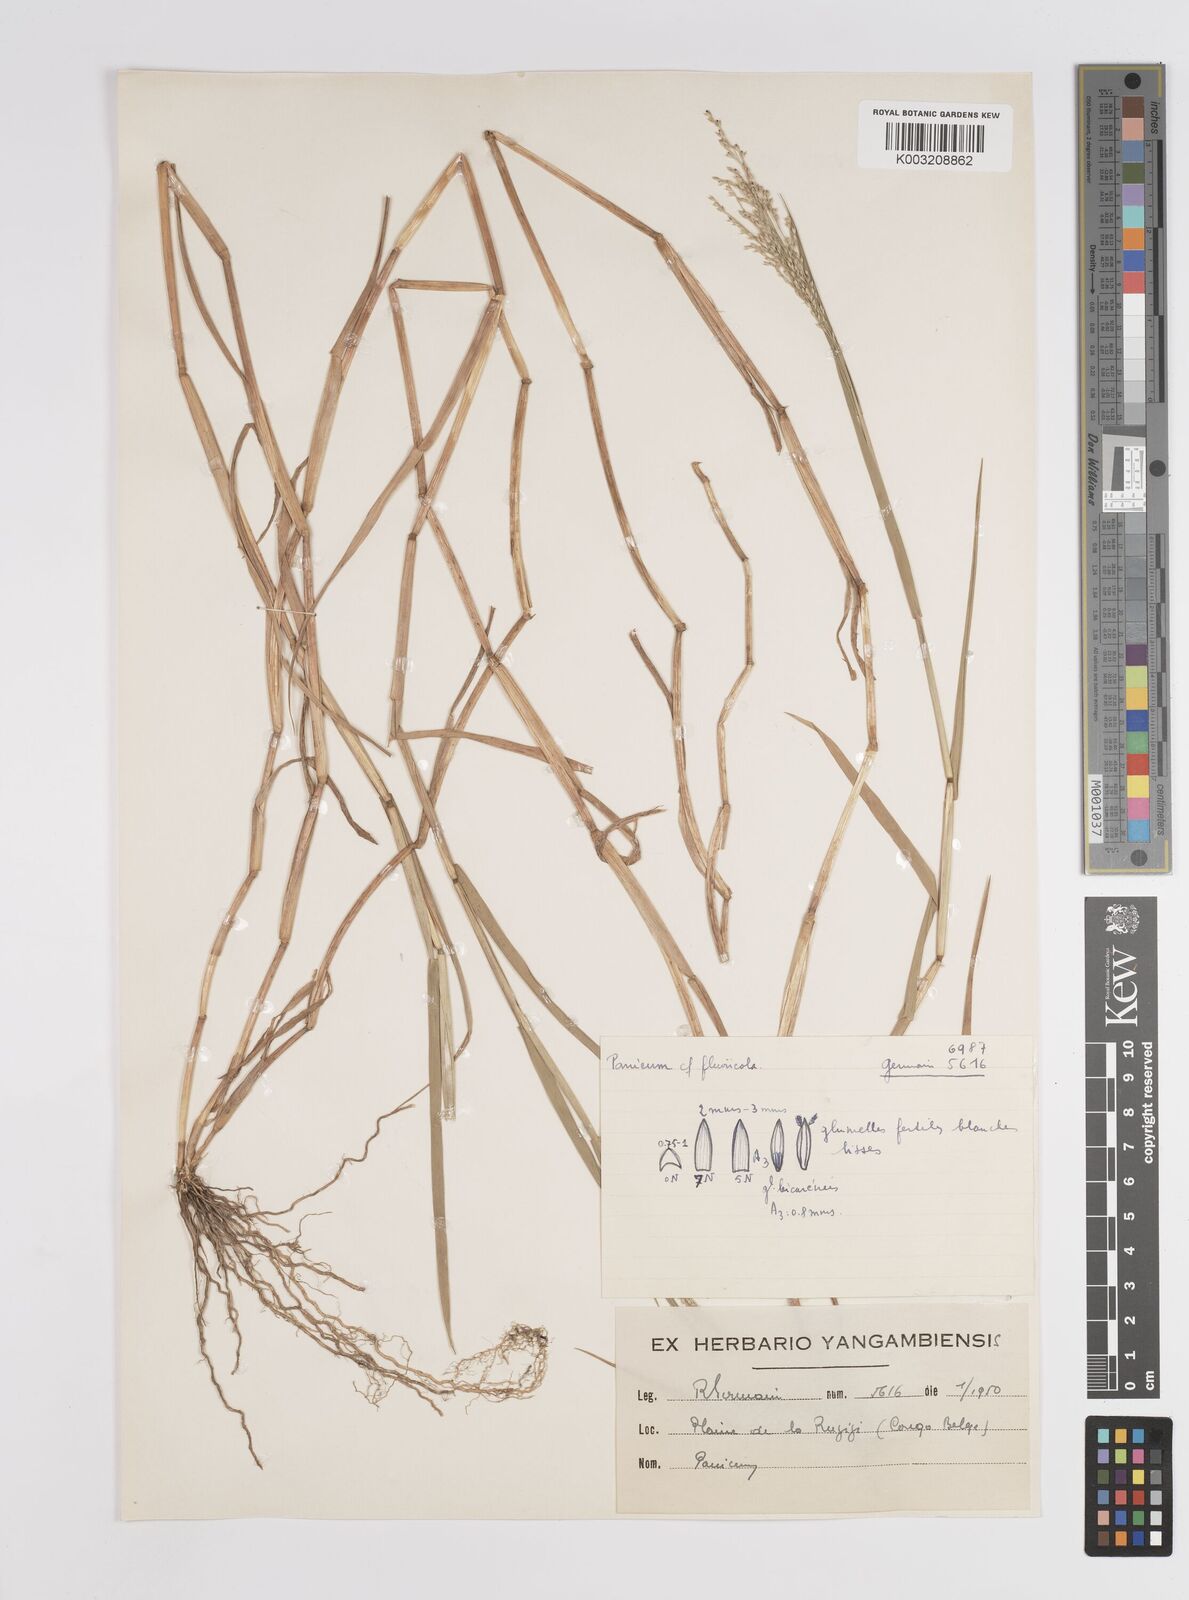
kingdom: Plantae
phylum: Tracheophyta
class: Liliopsida
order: Poales
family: Poaceae
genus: Panicum
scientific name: Panicum hygrocharis
